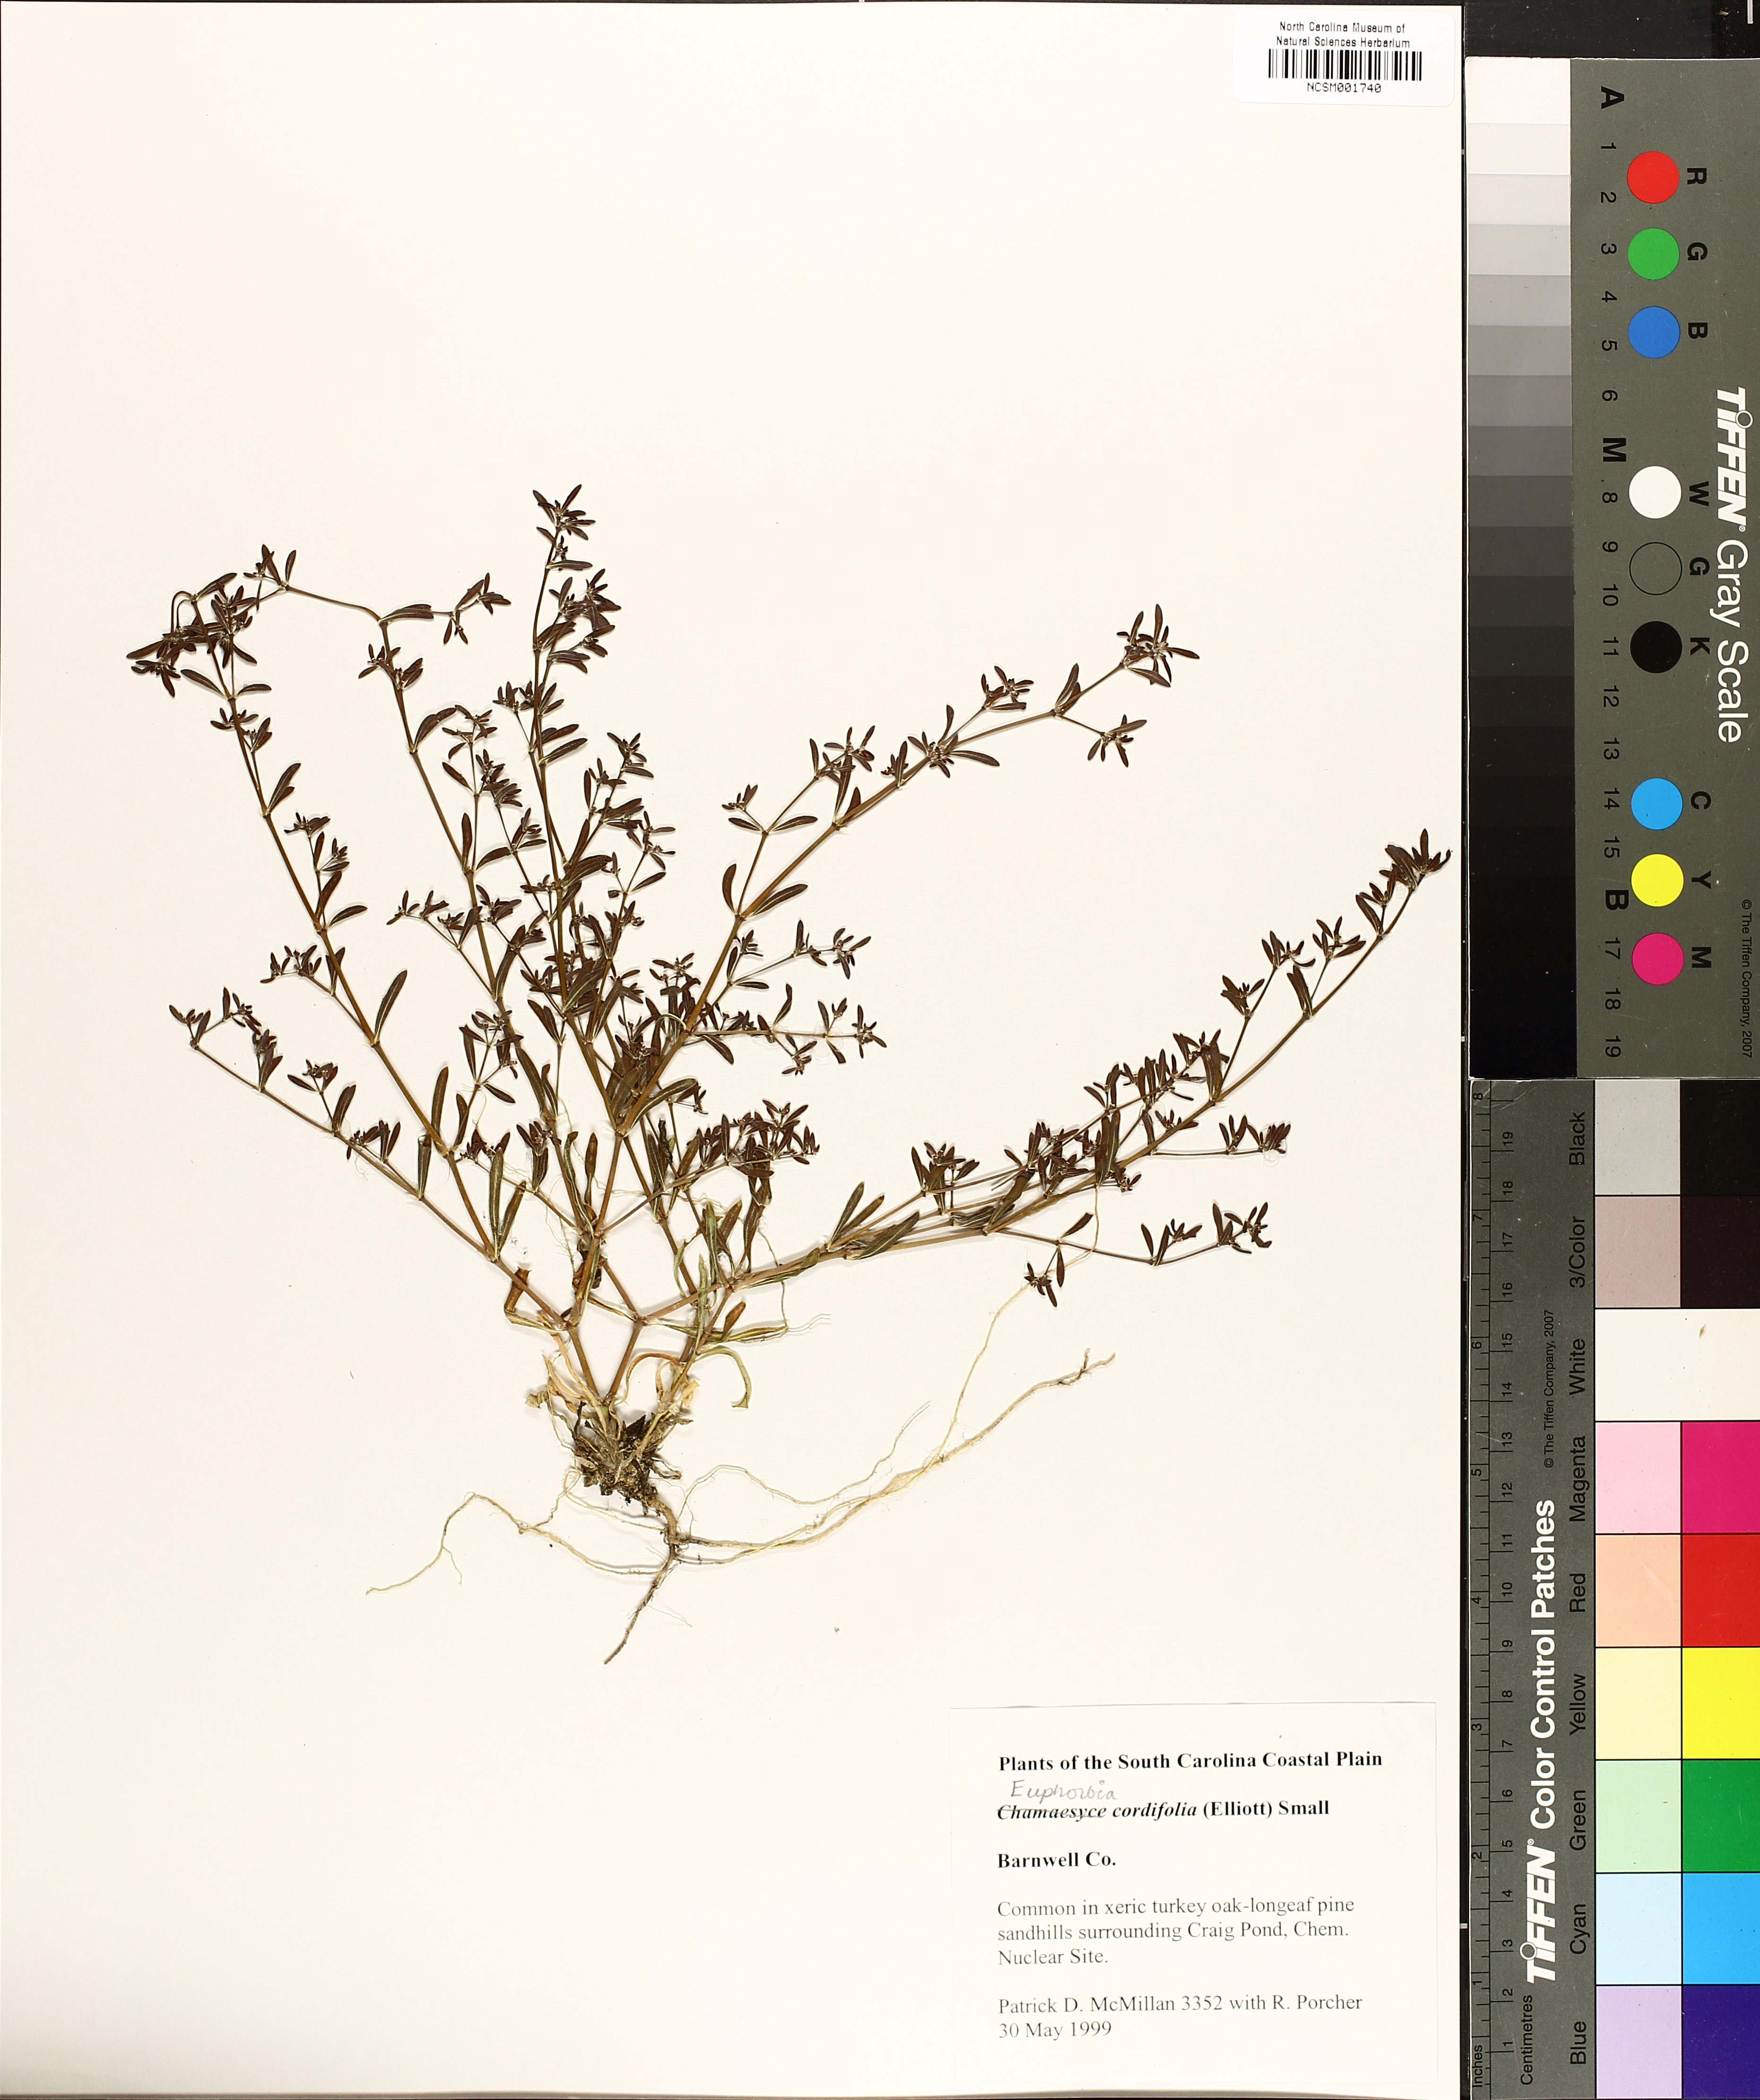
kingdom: Plantae
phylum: Tracheophyta
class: Magnoliopsida
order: Malpighiales
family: Euphorbiaceae
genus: Euphorbia
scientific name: Euphorbia cordifolia
